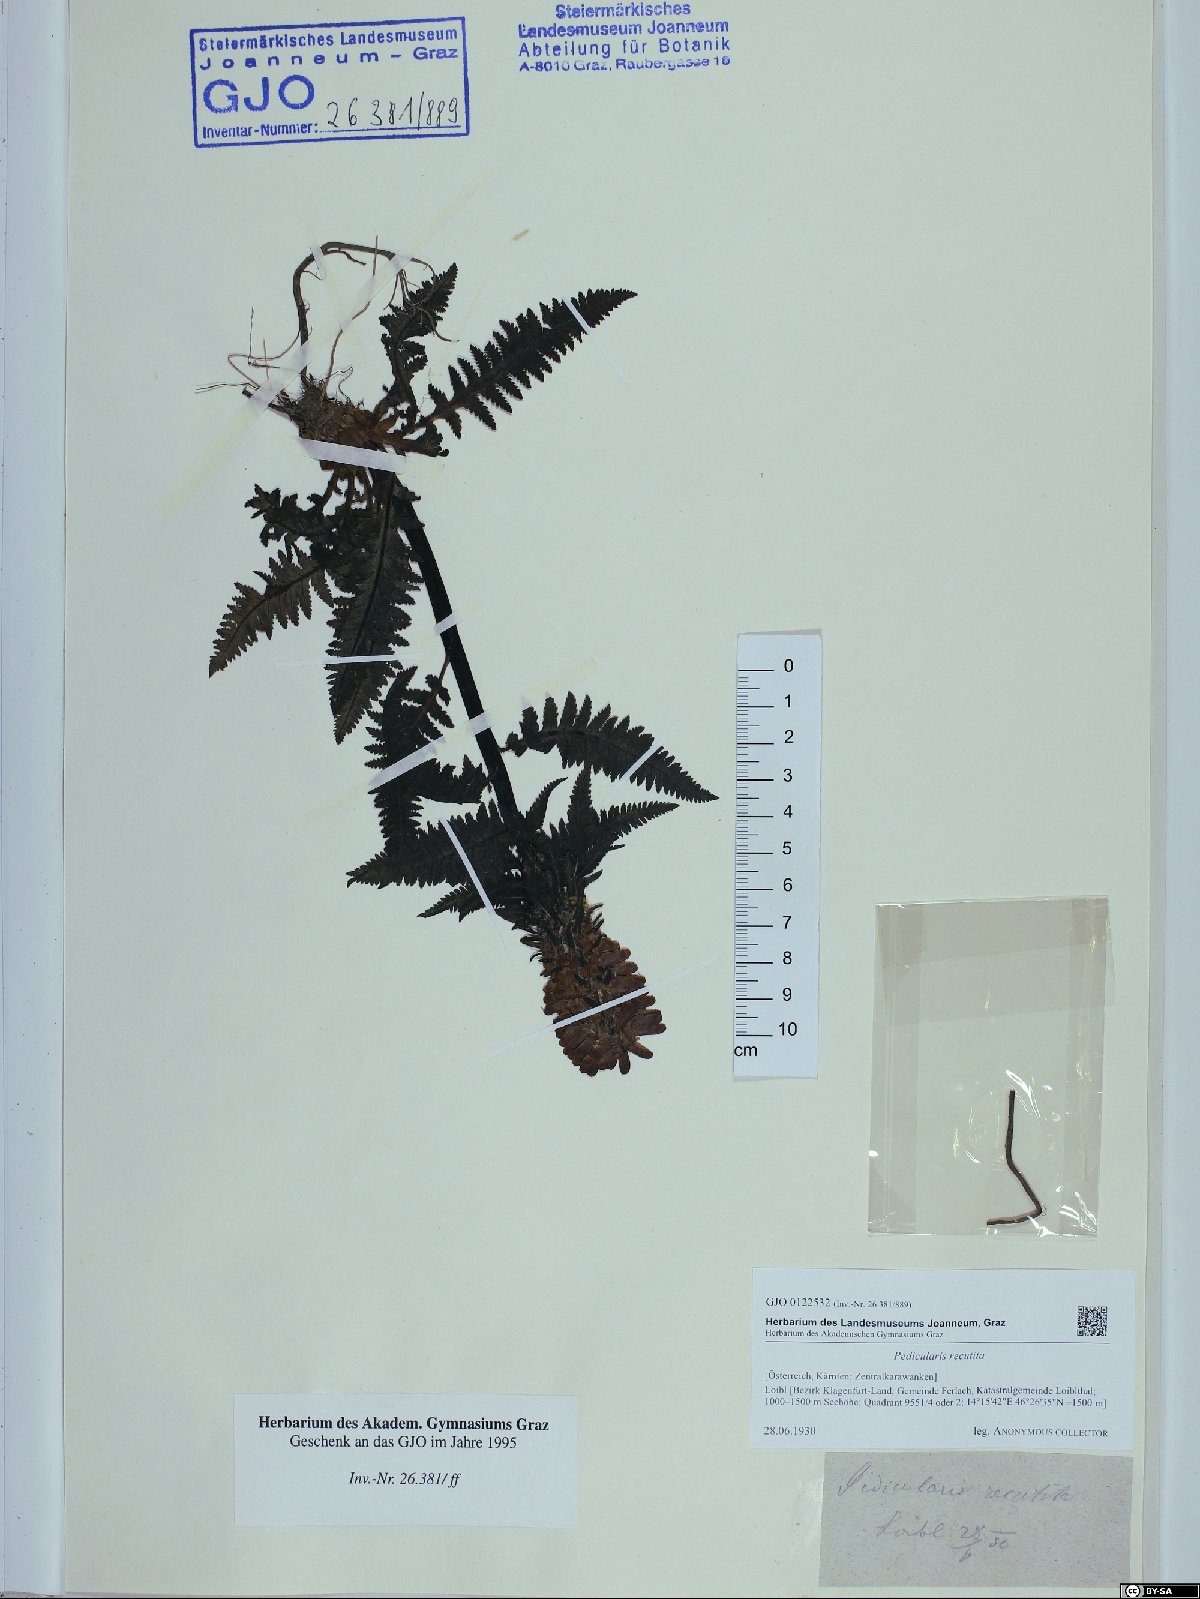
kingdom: Plantae
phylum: Tracheophyta
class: Magnoliopsida
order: Lamiales
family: Orobanchaceae
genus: Pedicularis
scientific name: Pedicularis recutita
